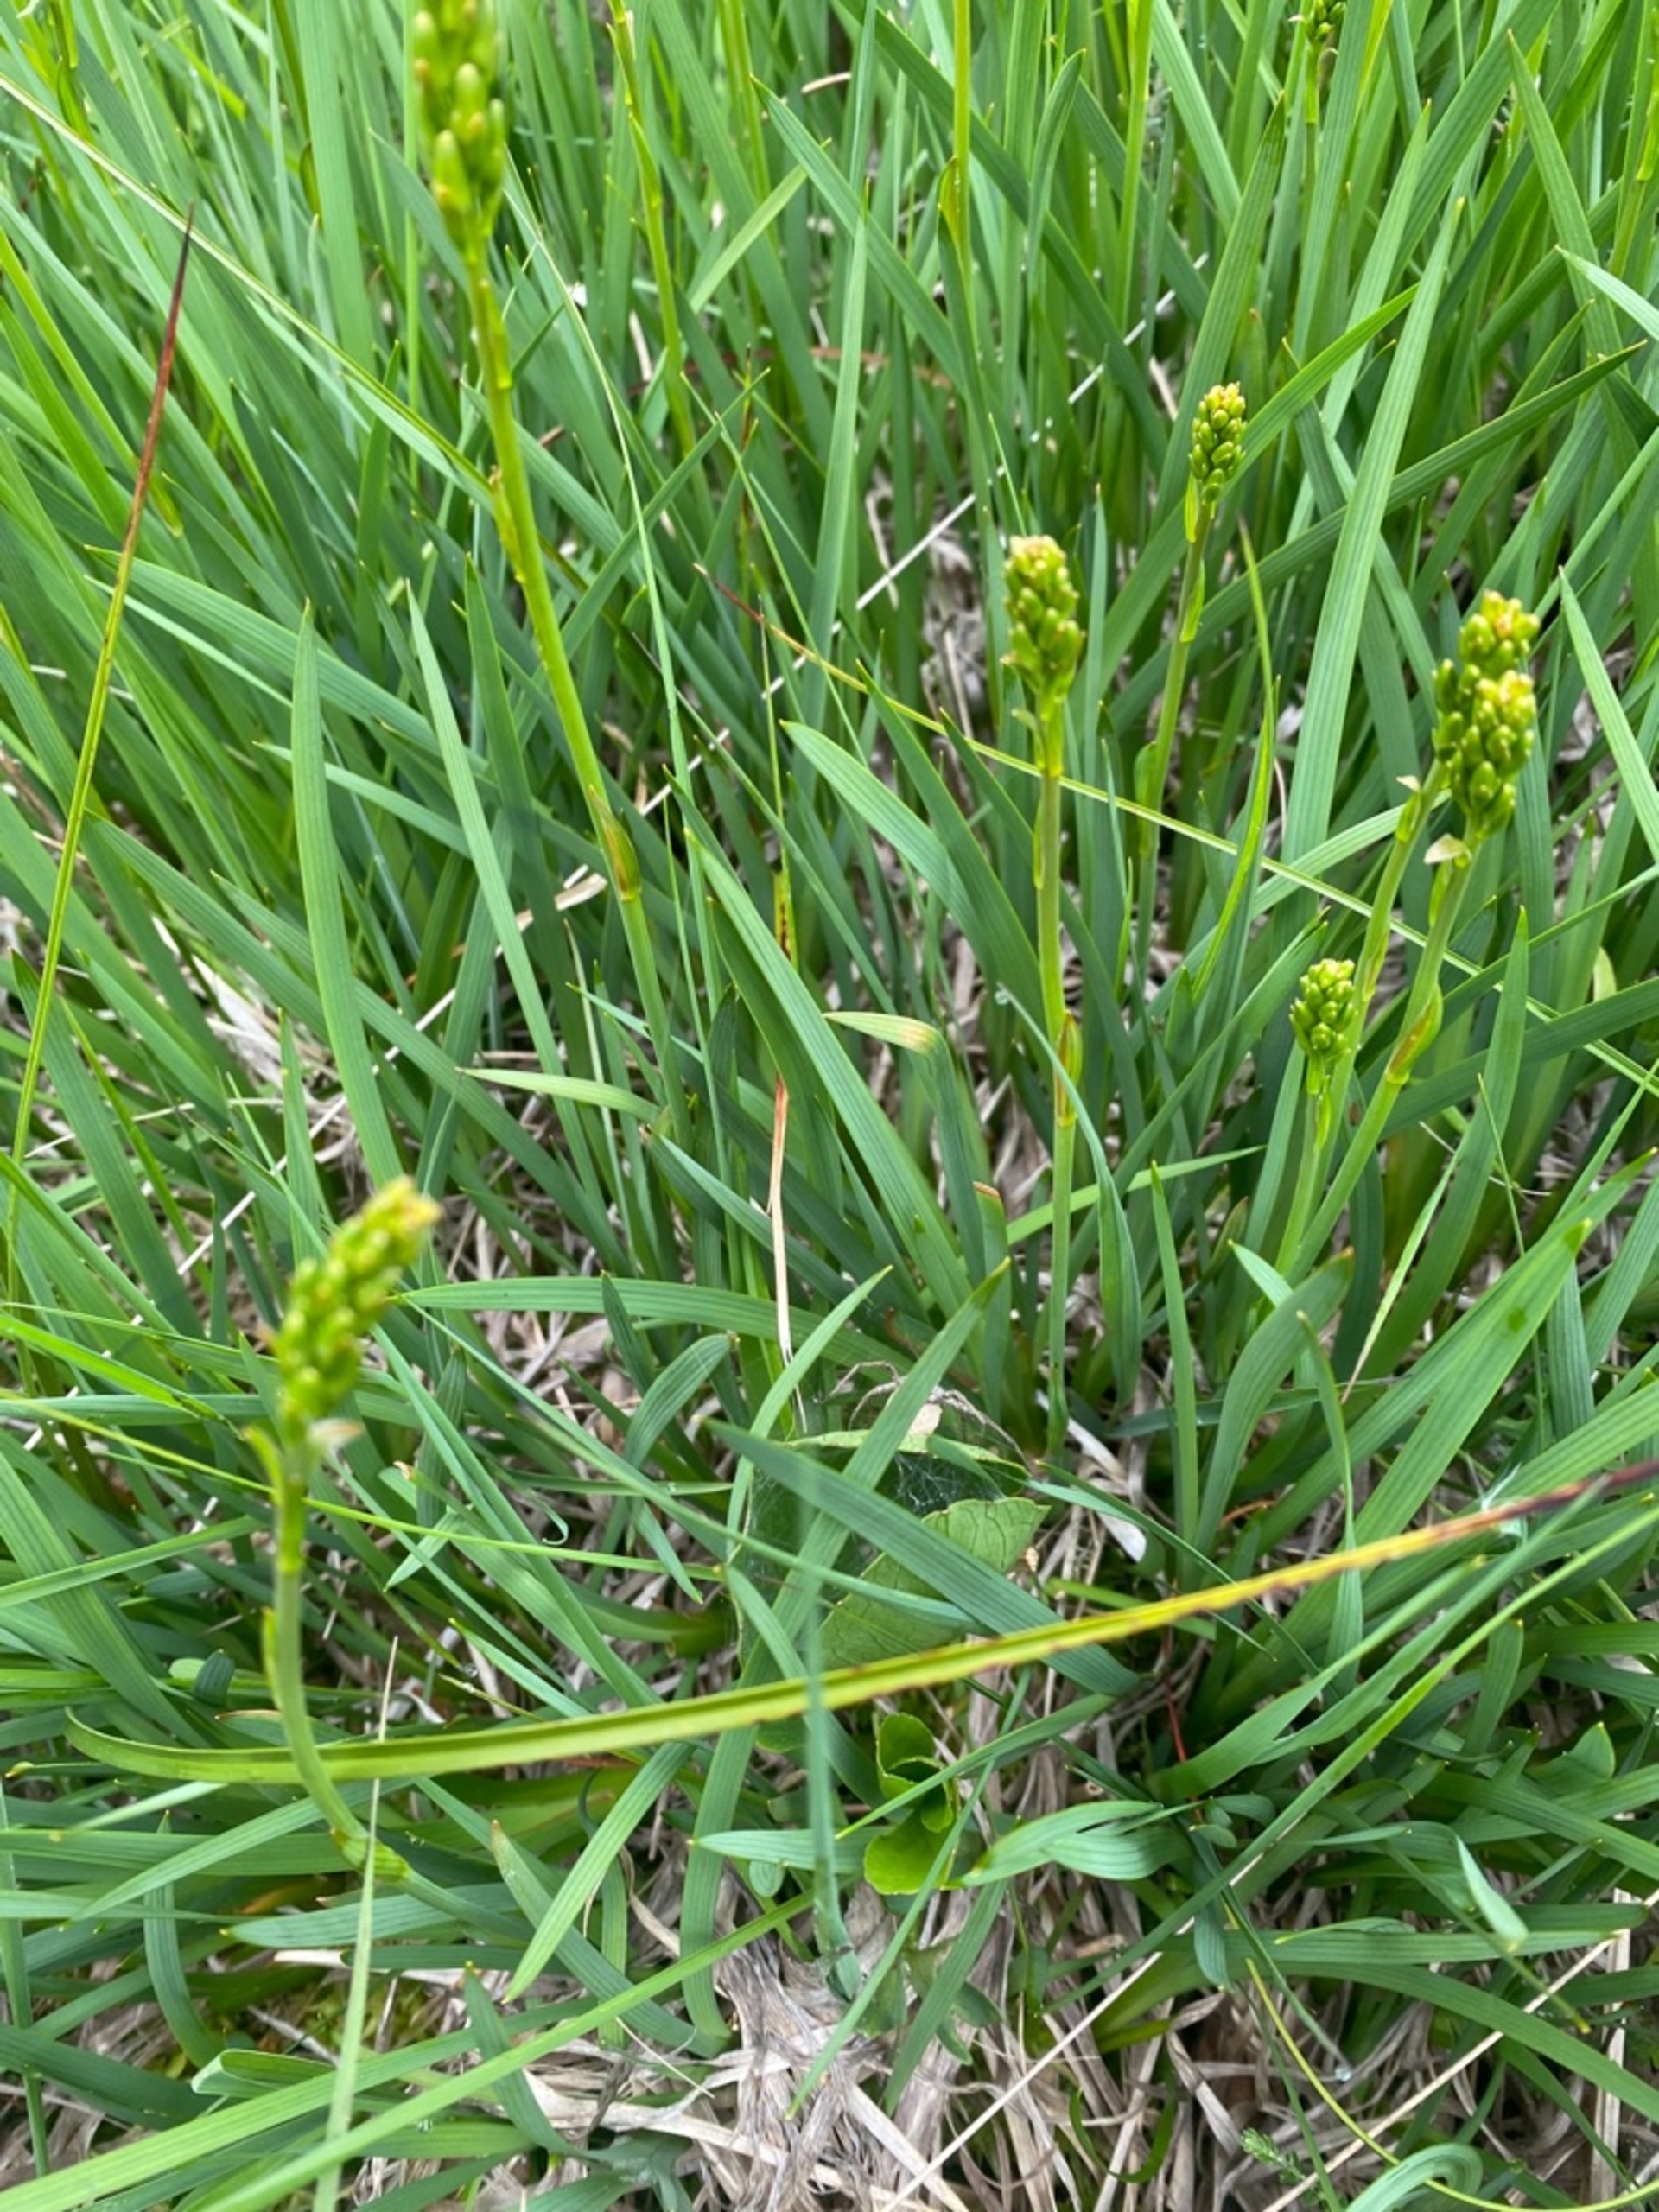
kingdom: Plantae
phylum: Tracheophyta
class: Liliopsida
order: Dioscoreales
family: Nartheciaceae
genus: Narthecium
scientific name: Narthecium ossifragum
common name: Benbræk
